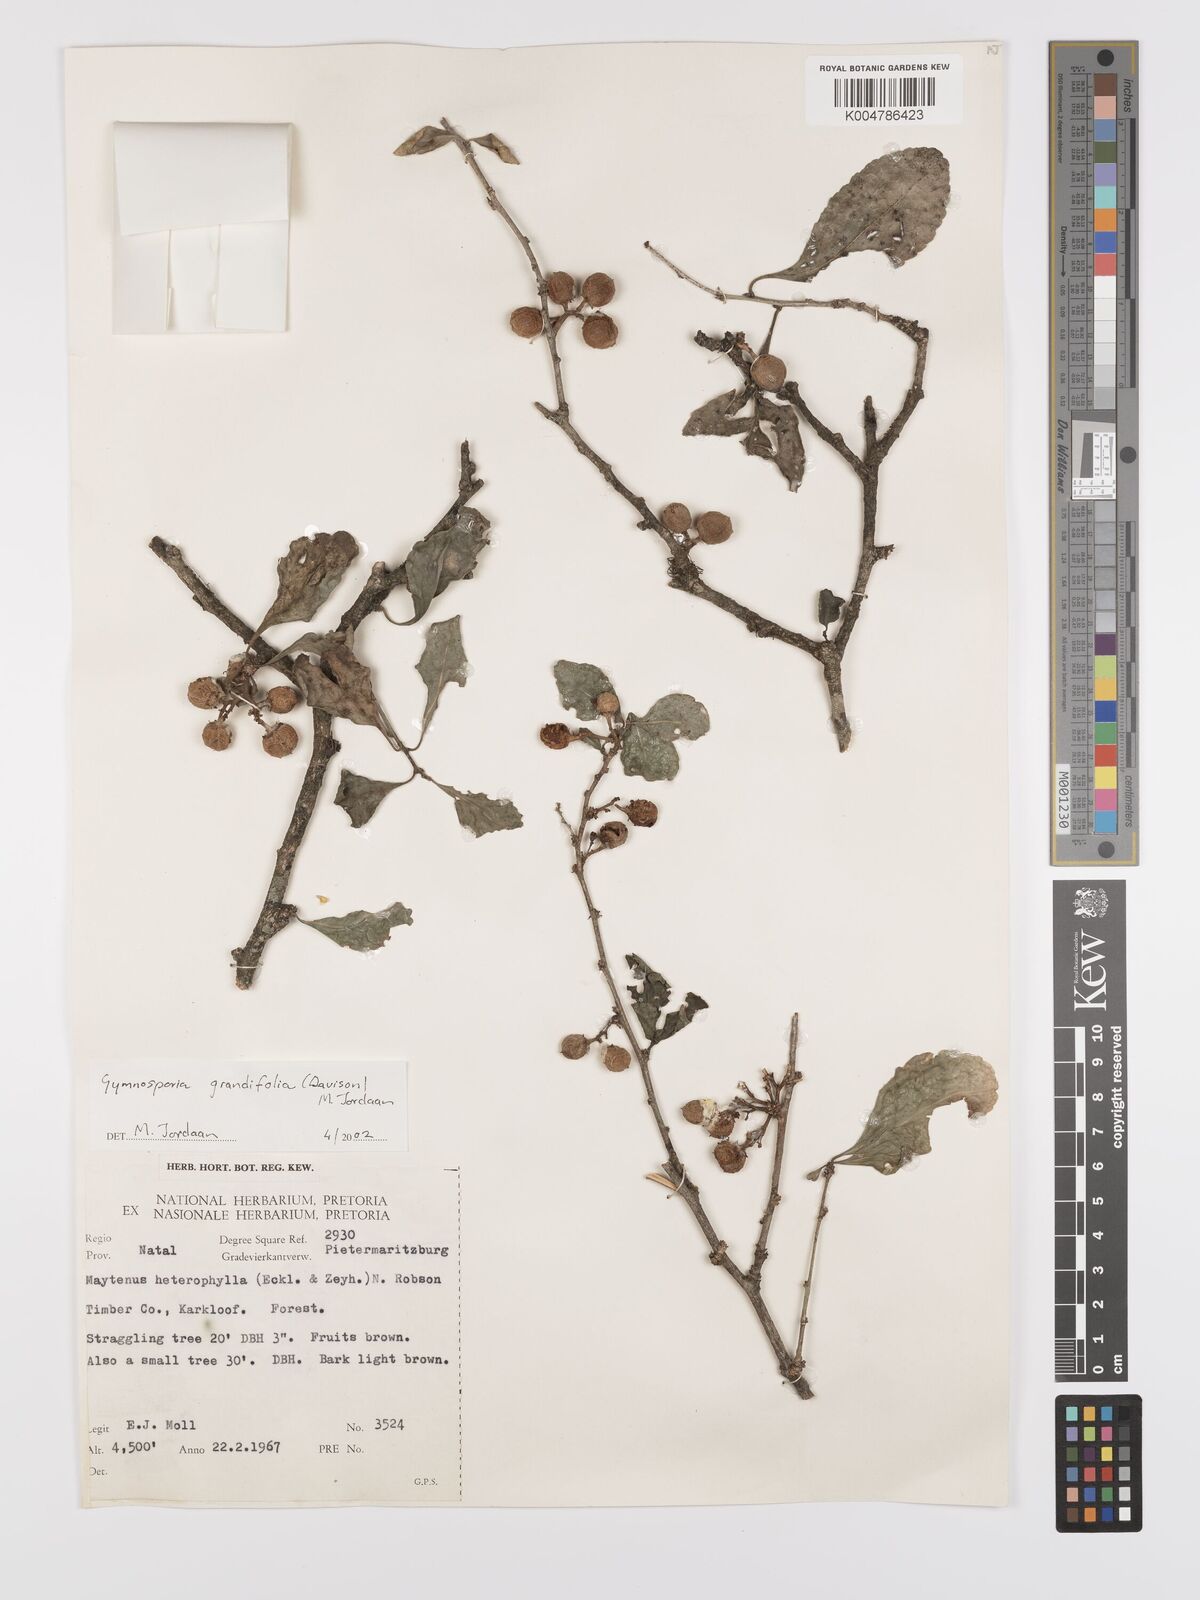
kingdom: Plantae
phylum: Tracheophyta
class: Magnoliopsida
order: Celastrales
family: Celastraceae
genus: Gymnosporia
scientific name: Gymnosporia grandifolia
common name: Large-fruited forest spike-thorn
